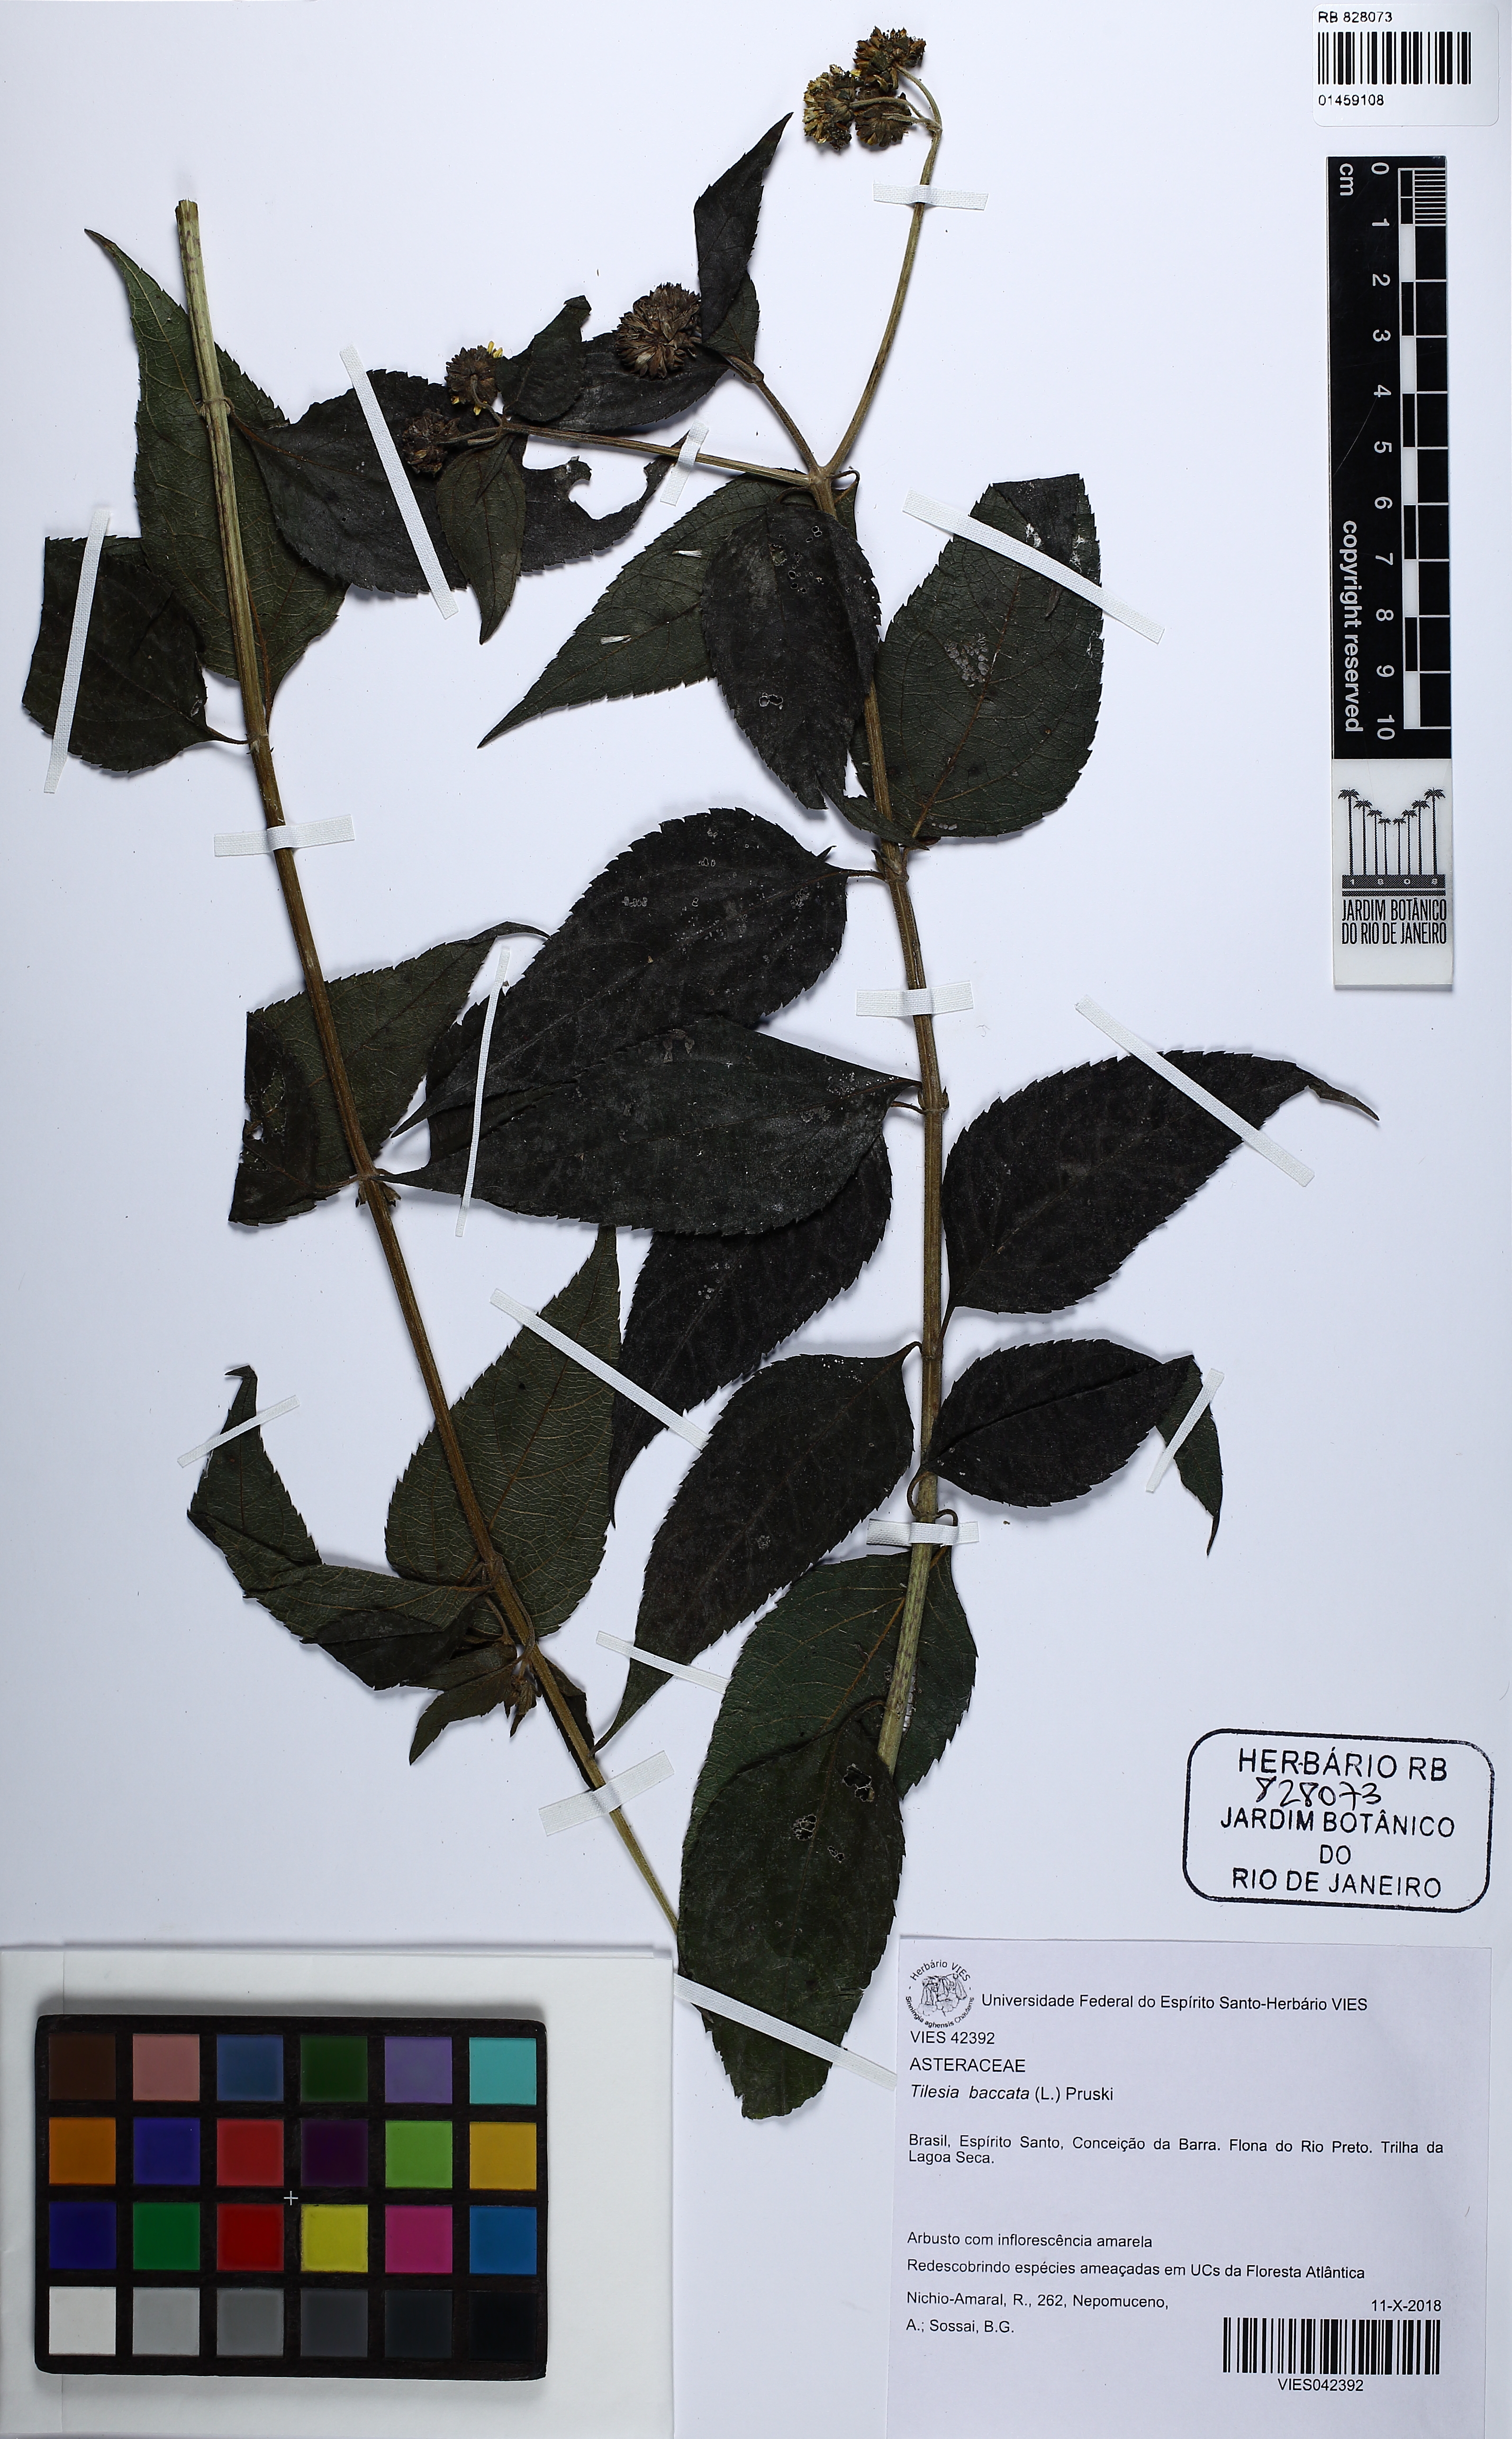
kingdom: Plantae
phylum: Tracheophyta
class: Magnoliopsida
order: Asterales
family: Asteraceae
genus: Tilesia
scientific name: Tilesia baccata
